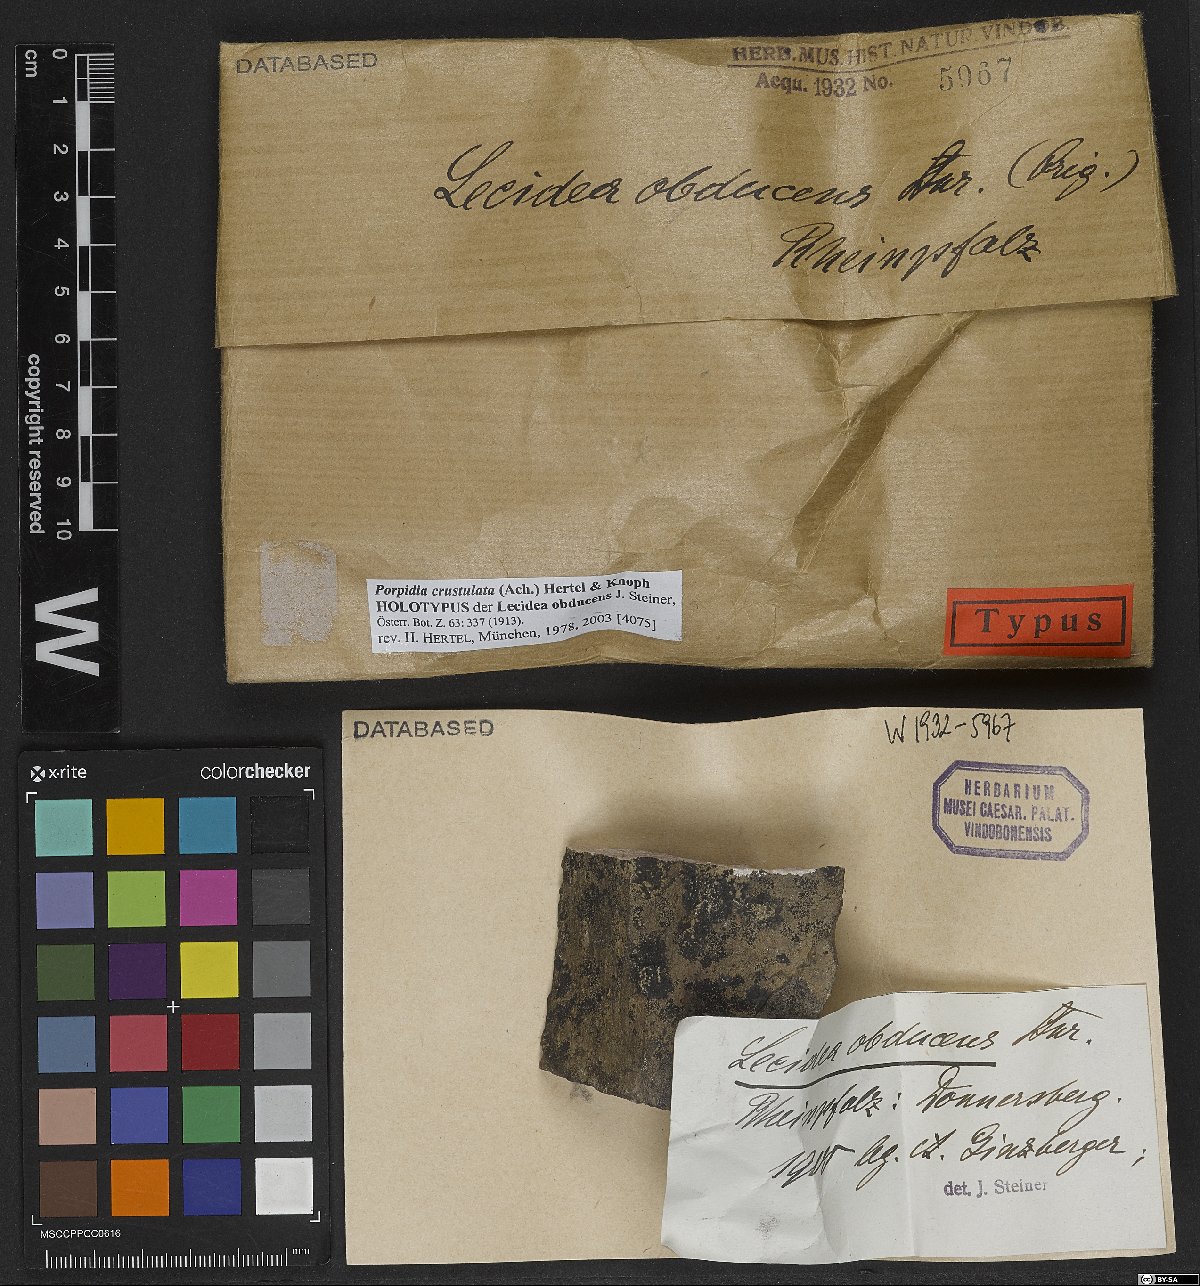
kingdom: Fungi
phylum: Ascomycota
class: Lecanoromycetes
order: Lecideales
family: Lecideaceae
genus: Lecidea
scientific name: Lecidea
